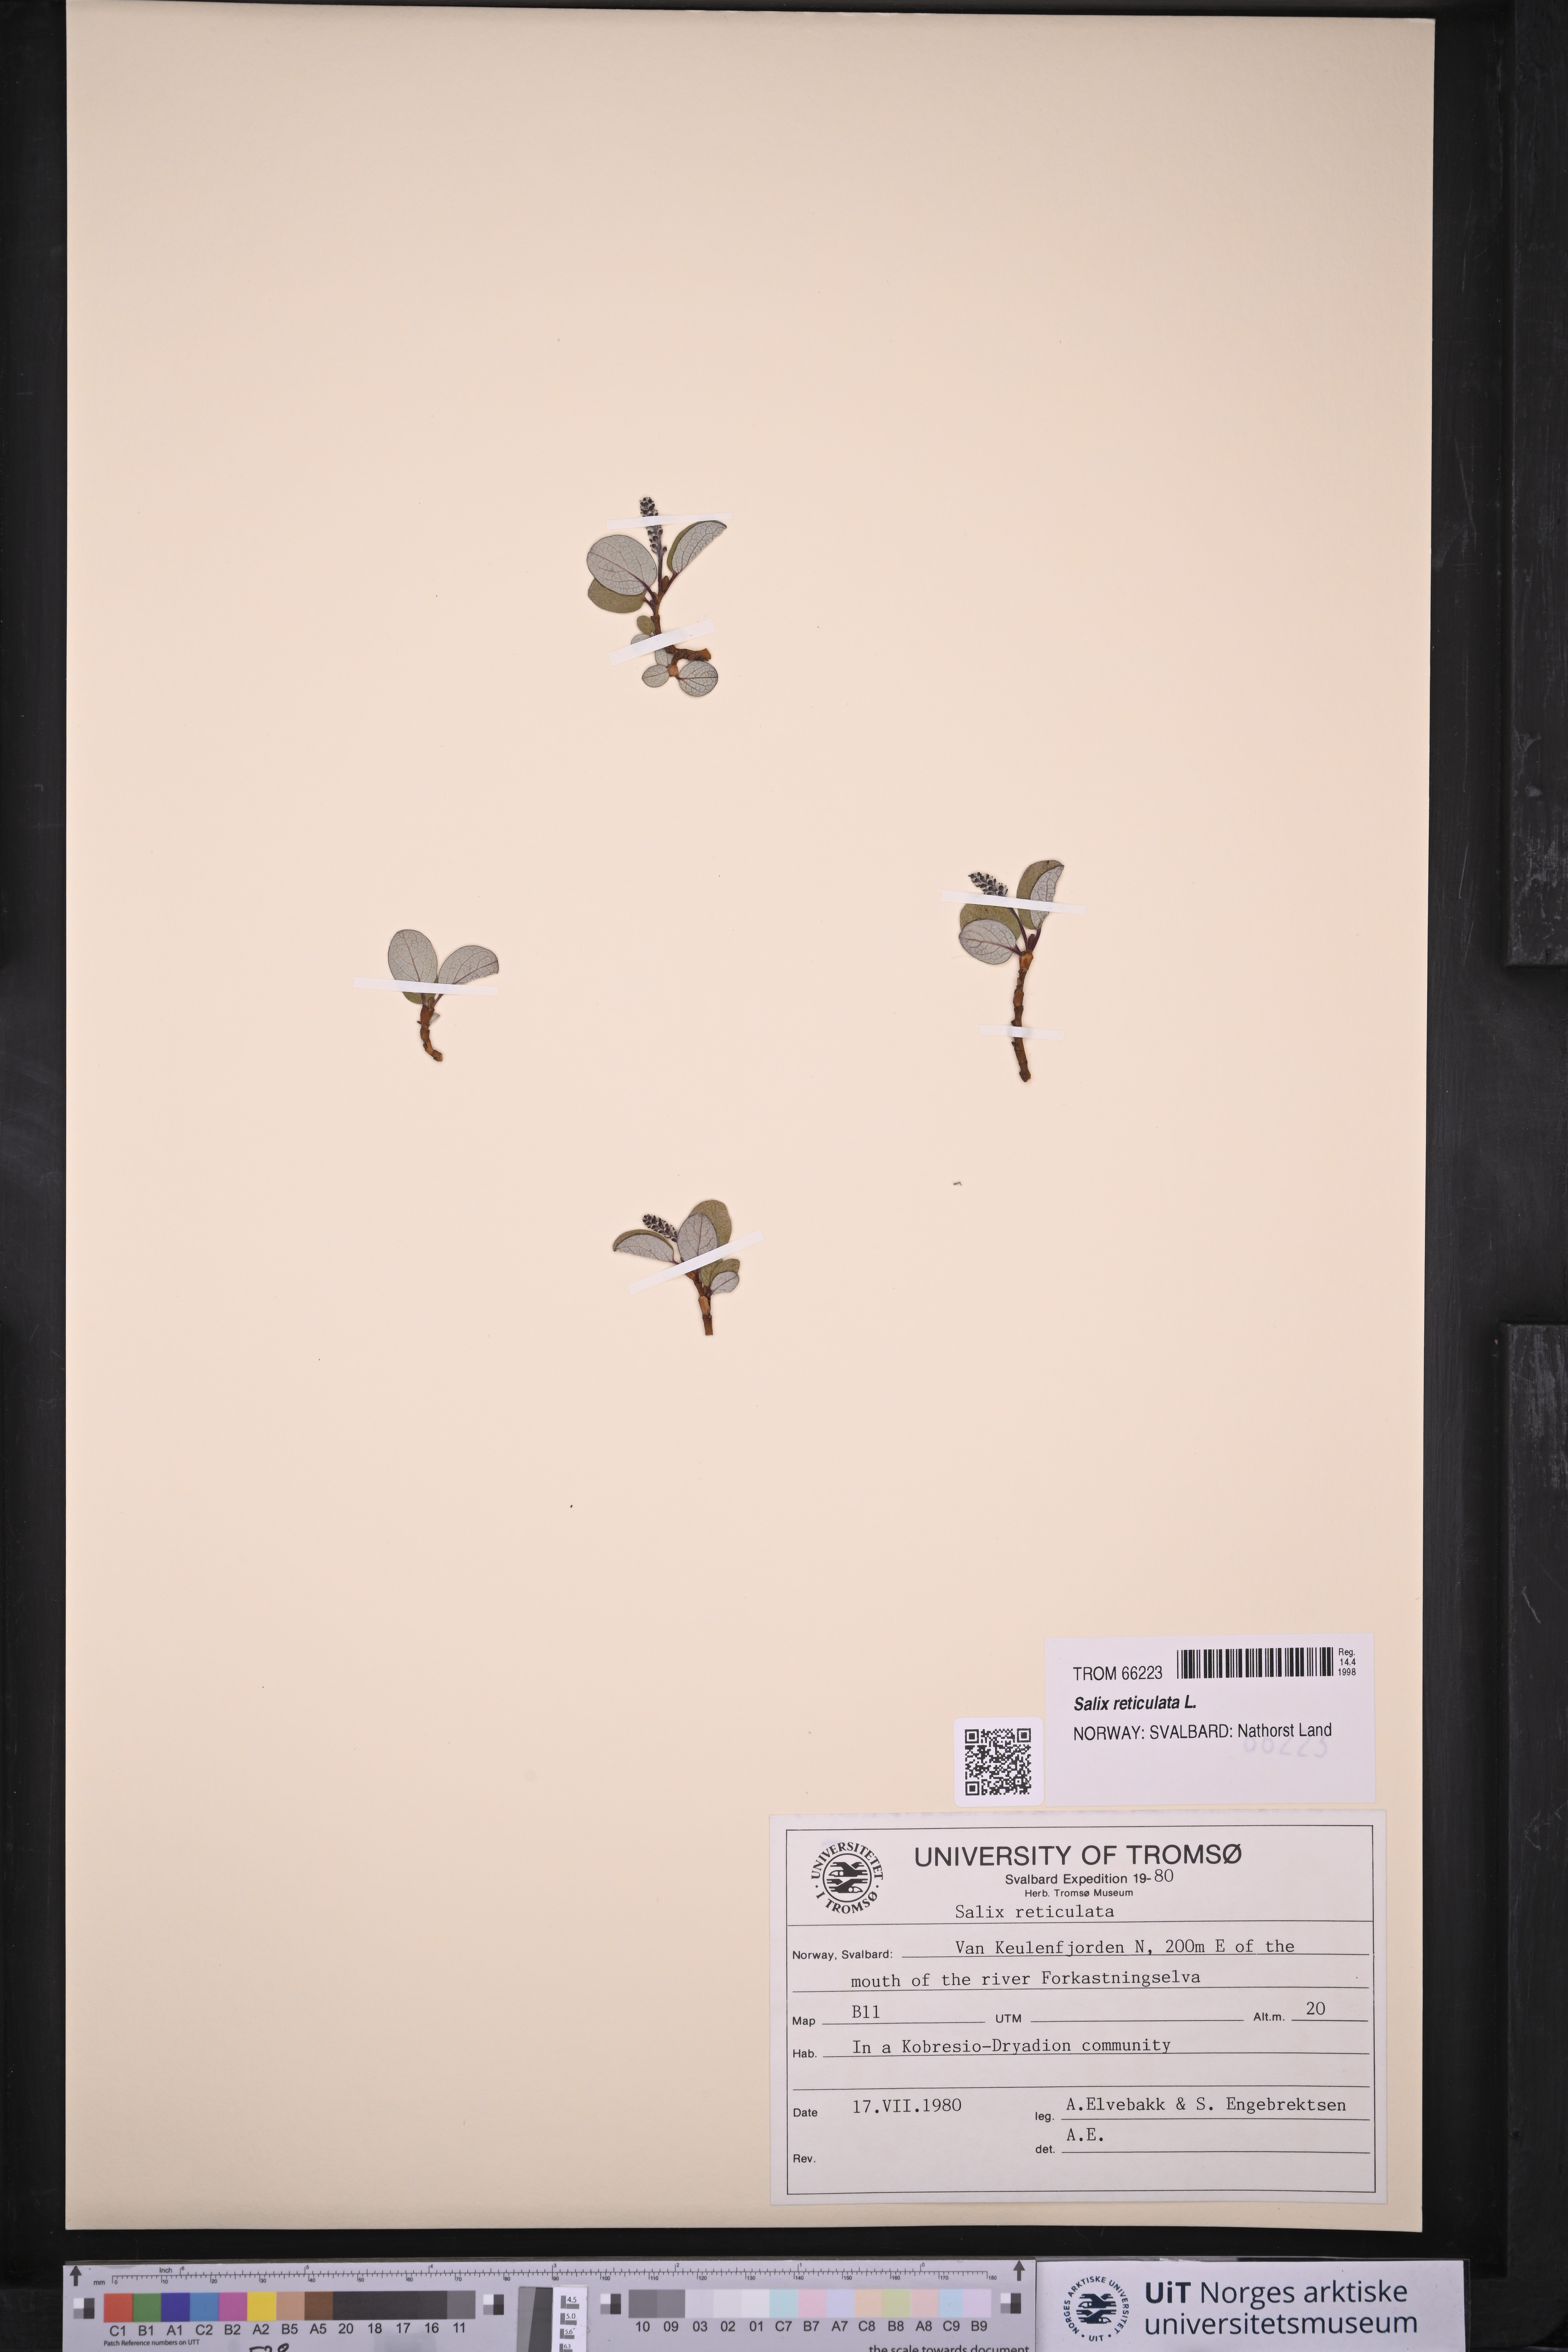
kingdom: Plantae
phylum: Tracheophyta
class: Magnoliopsida
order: Malpighiales
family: Salicaceae
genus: Salix
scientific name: Salix reticulata
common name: Net-leaved willow
